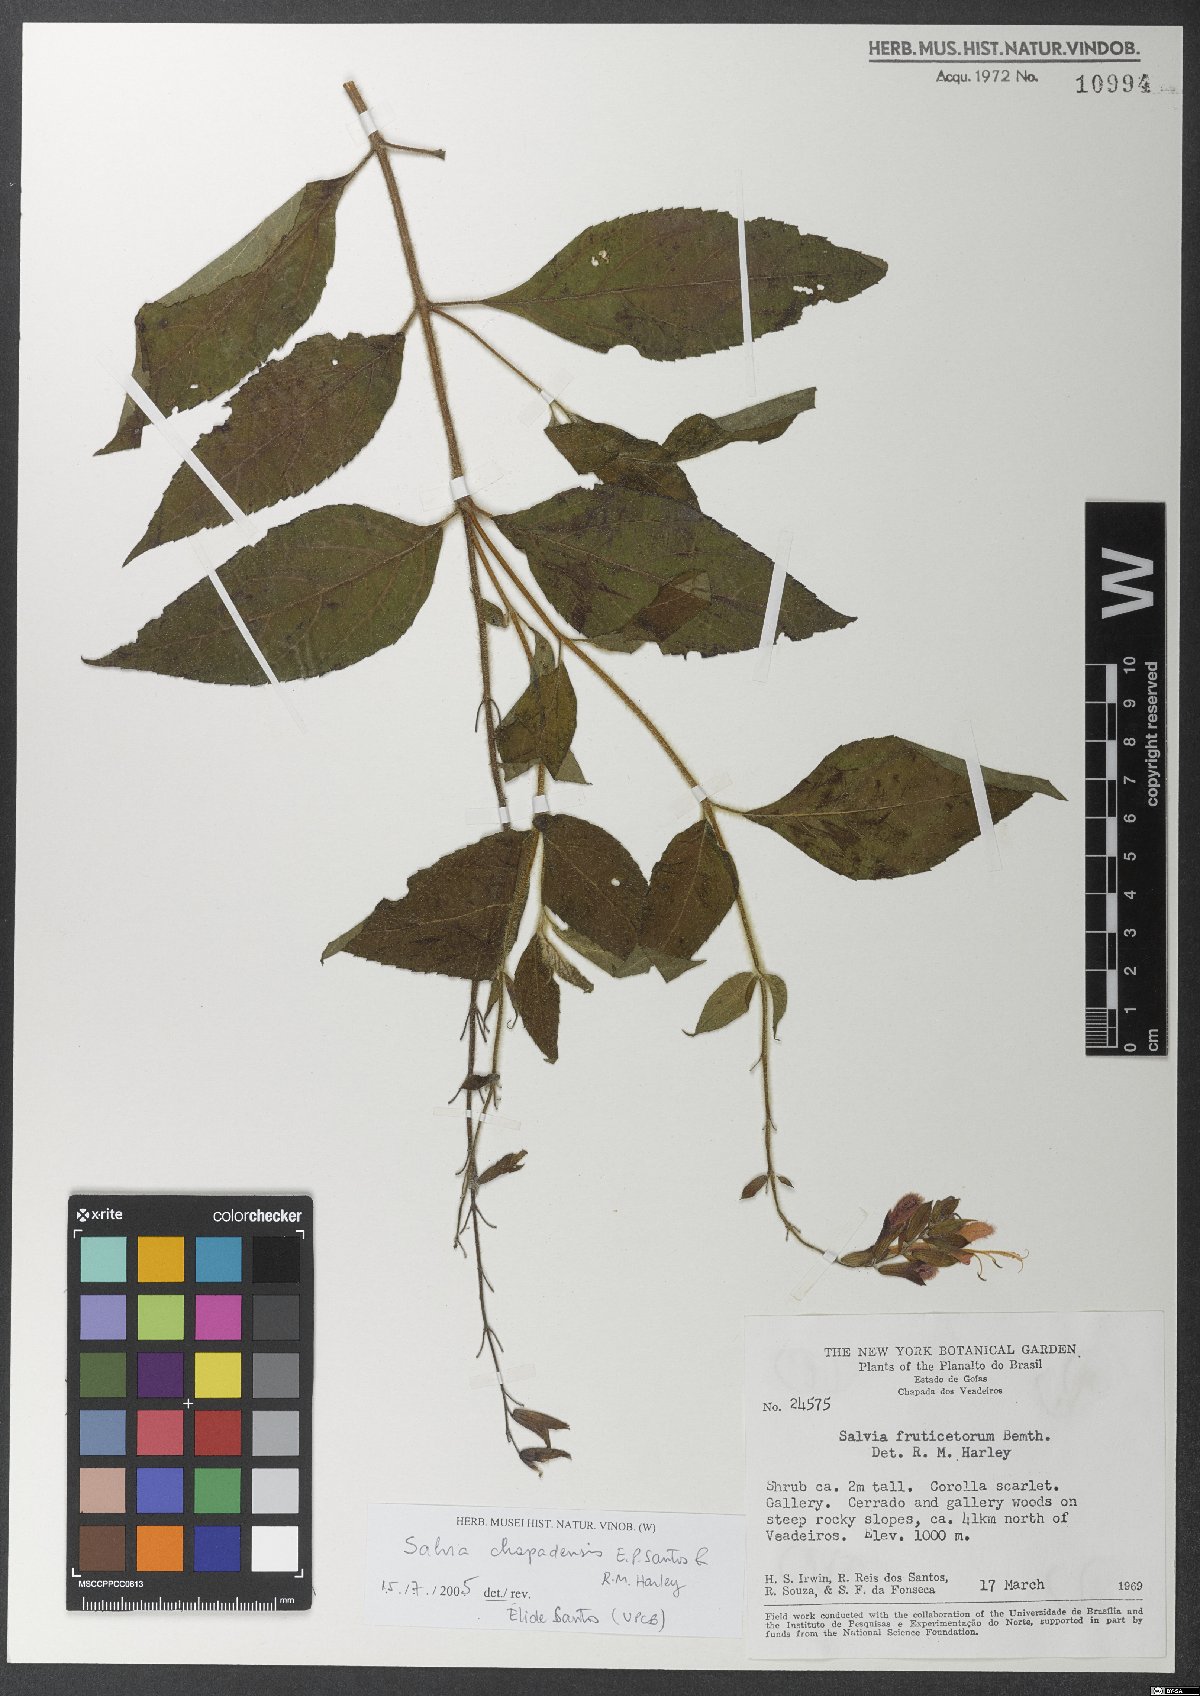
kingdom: Plantae
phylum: Tracheophyta
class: Magnoliopsida
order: Lamiales
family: Lamiaceae
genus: Salvia
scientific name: Salvia chapadensis
